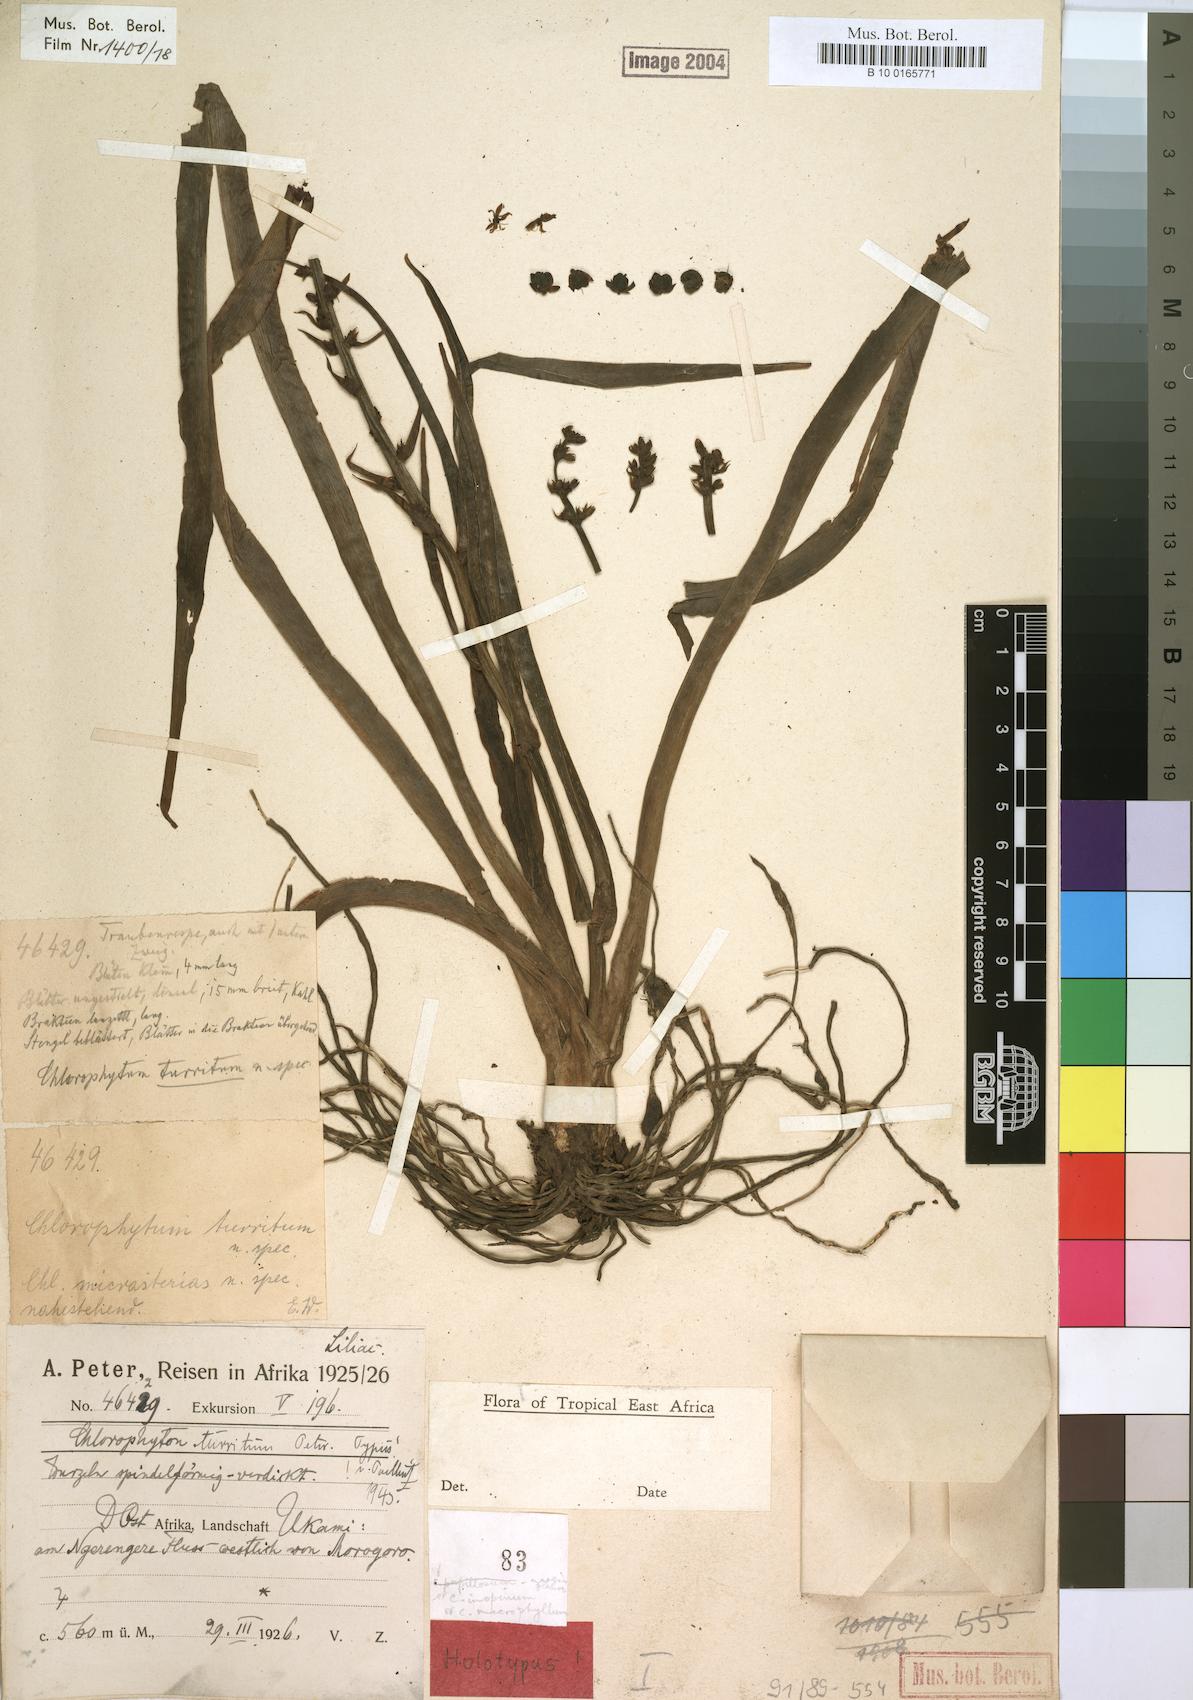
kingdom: Plantae
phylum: Tracheophyta
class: Liliopsida
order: Asparagales
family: Asparagaceae
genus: Chlorophytum
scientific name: Chlorophytum comosum
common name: Spider plant
